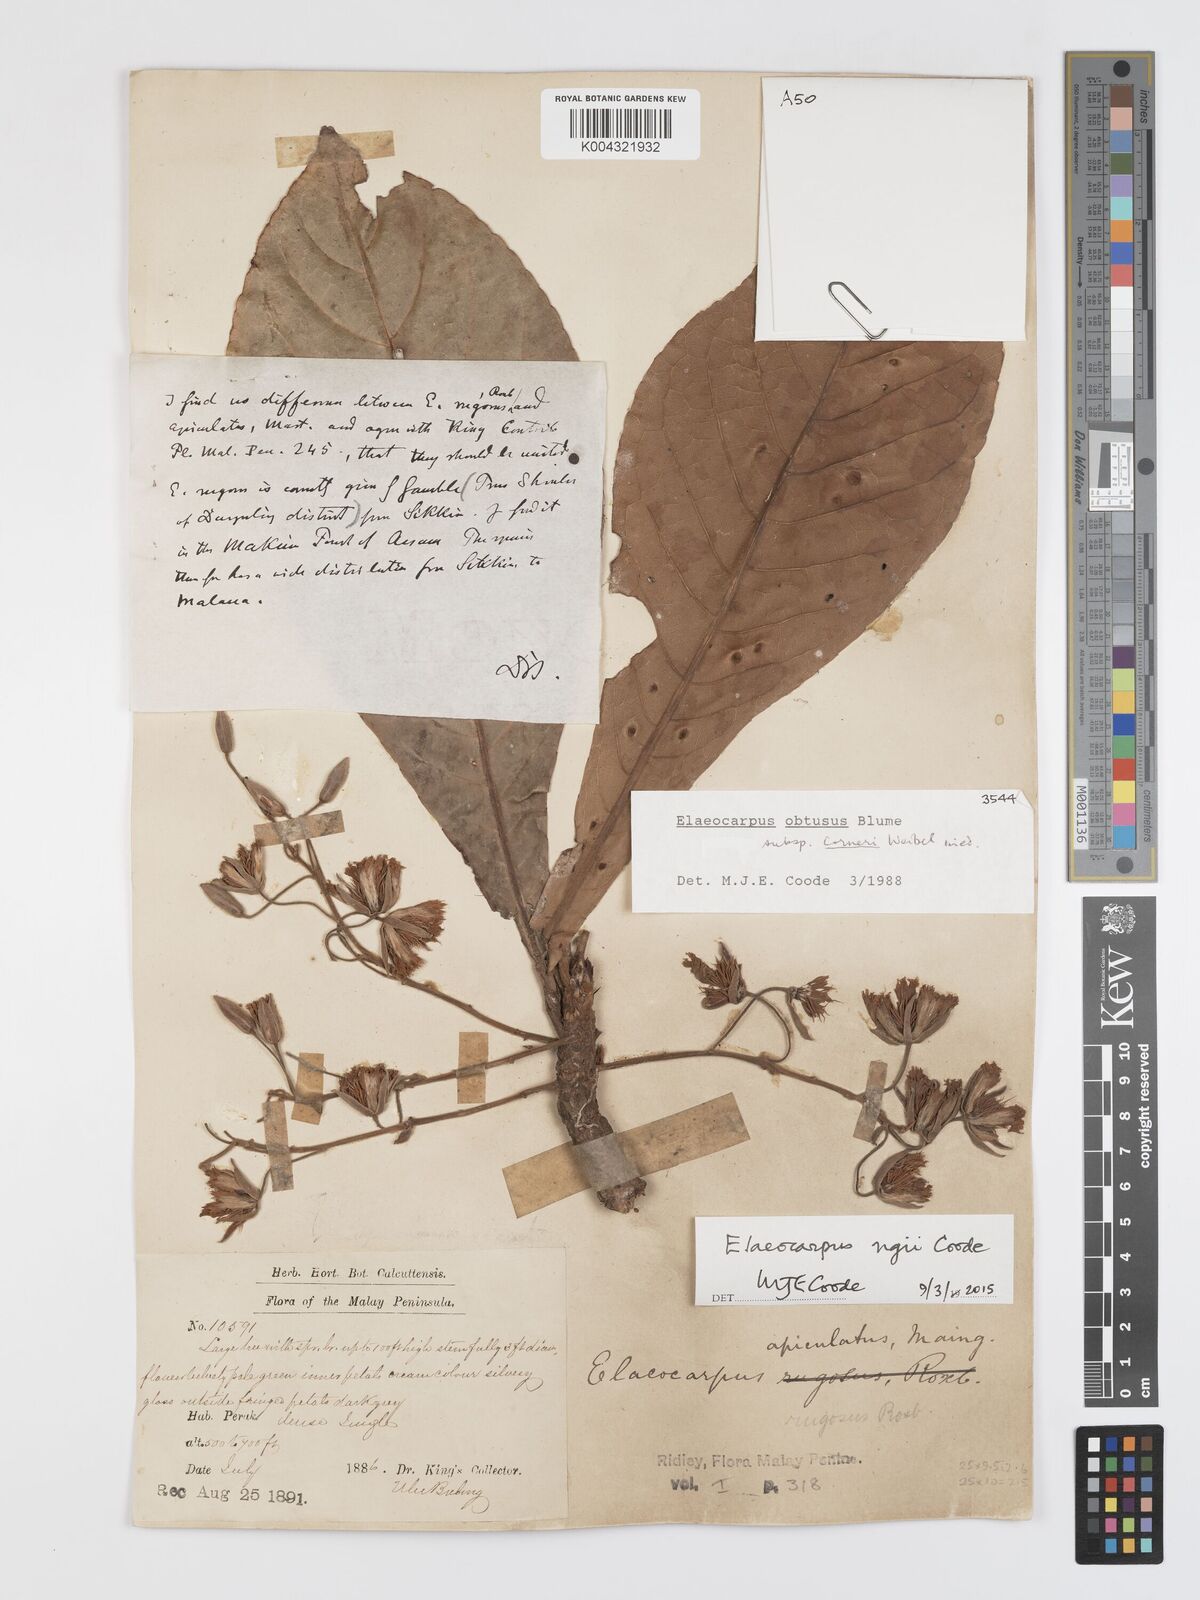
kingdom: Plantae
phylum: Tracheophyta
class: Magnoliopsida
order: Oxalidales
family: Elaeocarpaceae
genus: Elaeocarpus
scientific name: Elaeocarpus obtusus
